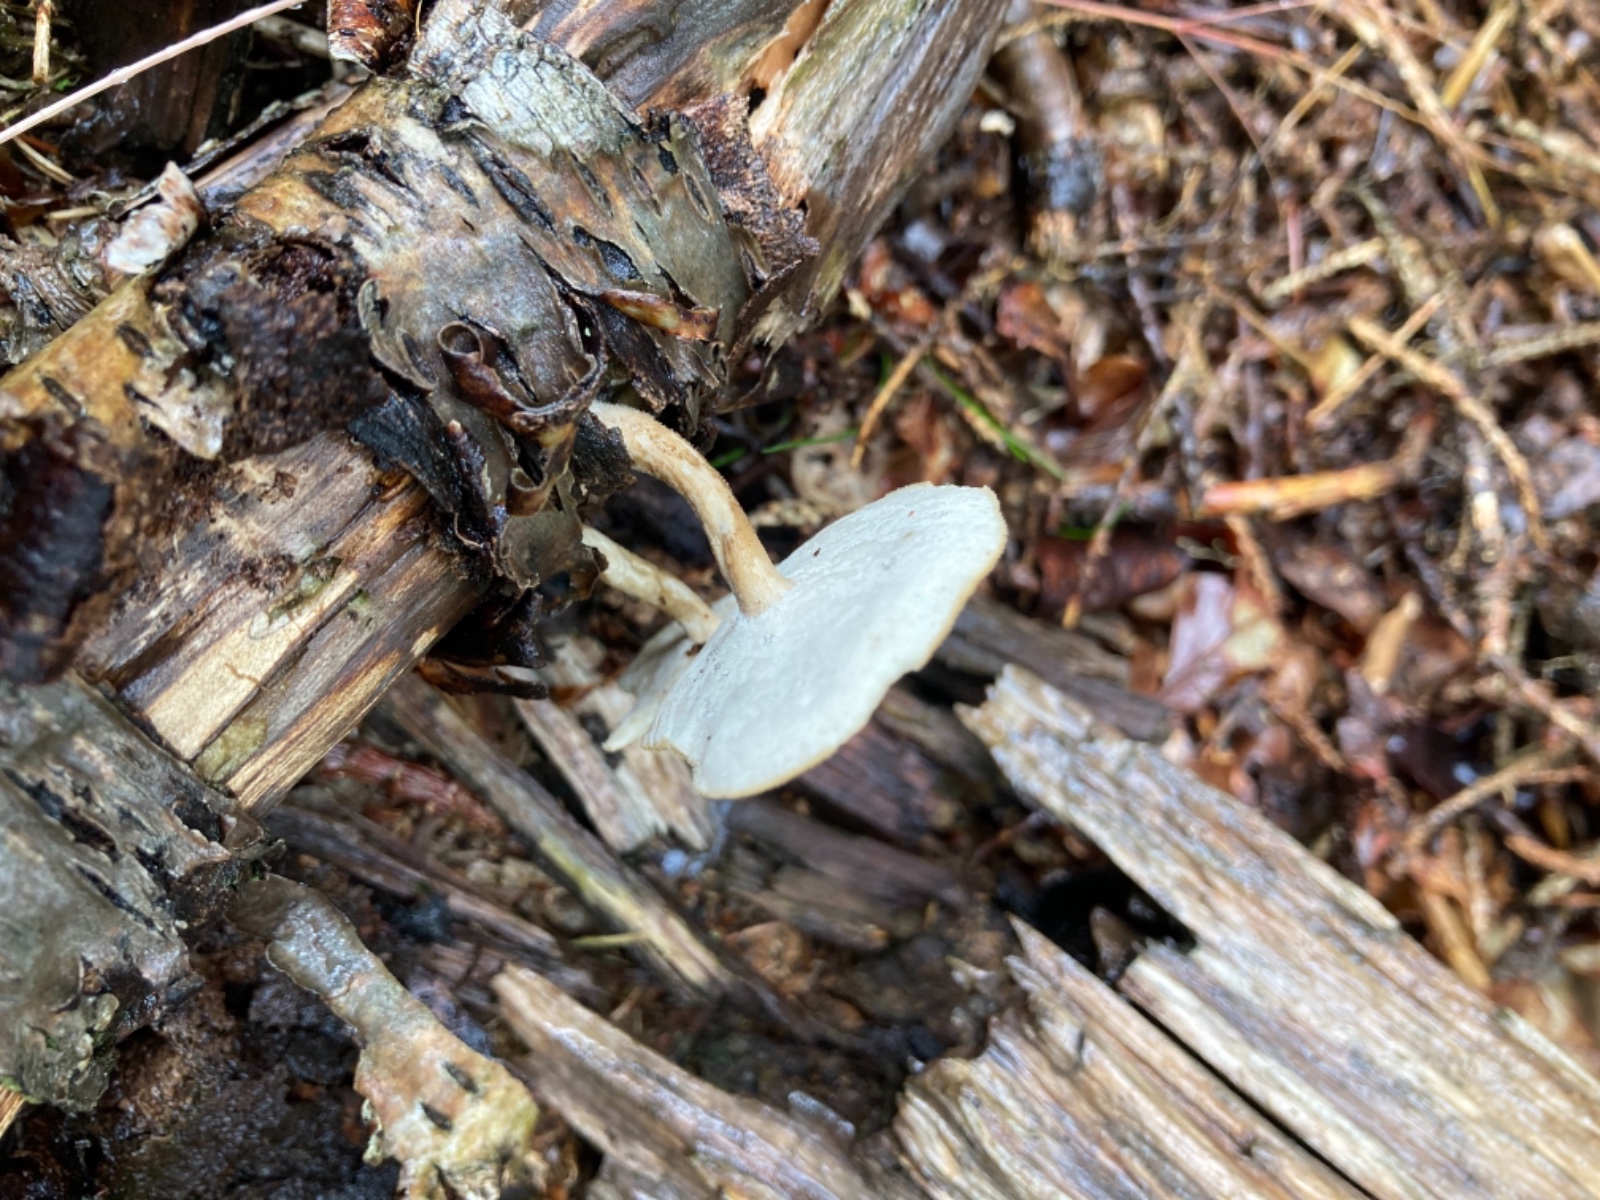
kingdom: Fungi
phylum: Basidiomycota
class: Agaricomycetes
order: Polyporales
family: Polyporaceae
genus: Lentinus
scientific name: Lentinus substrictus
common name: forårs-stilkporesvamp
